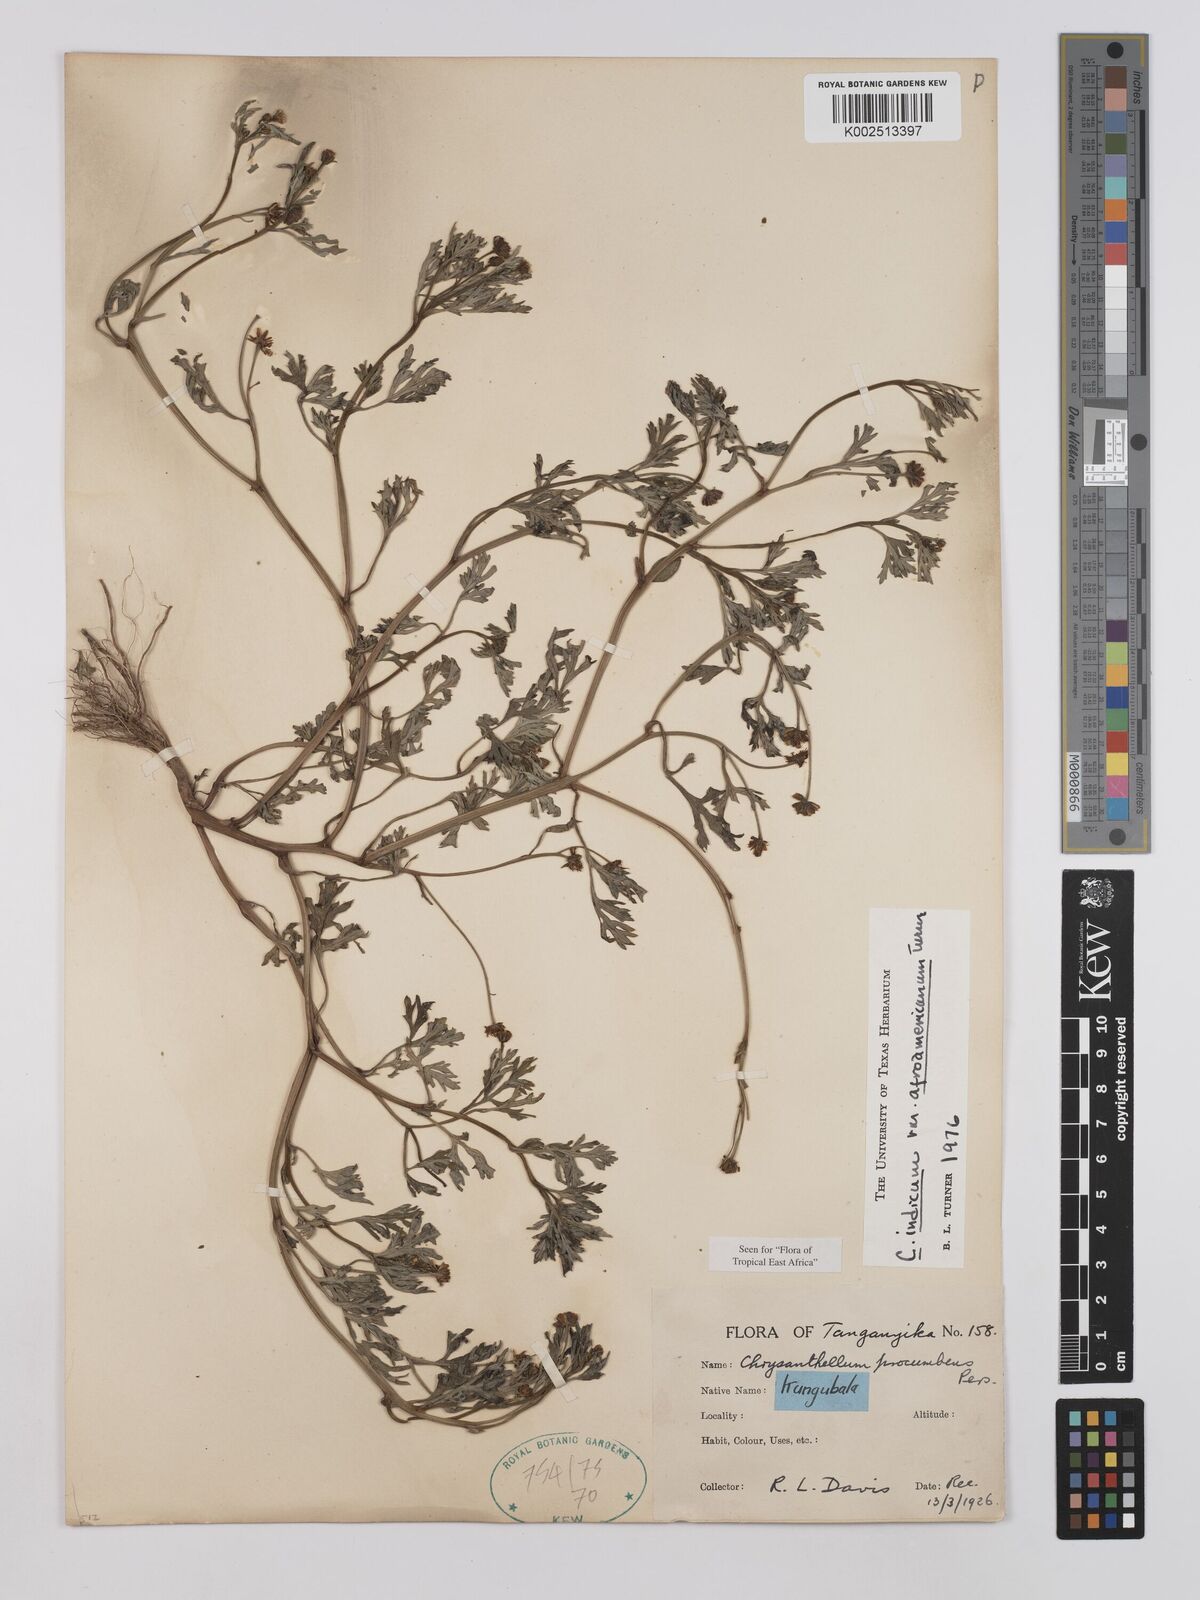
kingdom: Plantae
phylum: Tracheophyta
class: Magnoliopsida
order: Asterales
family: Asteraceae
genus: Chrysanthellum
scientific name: Chrysanthellum indicum
